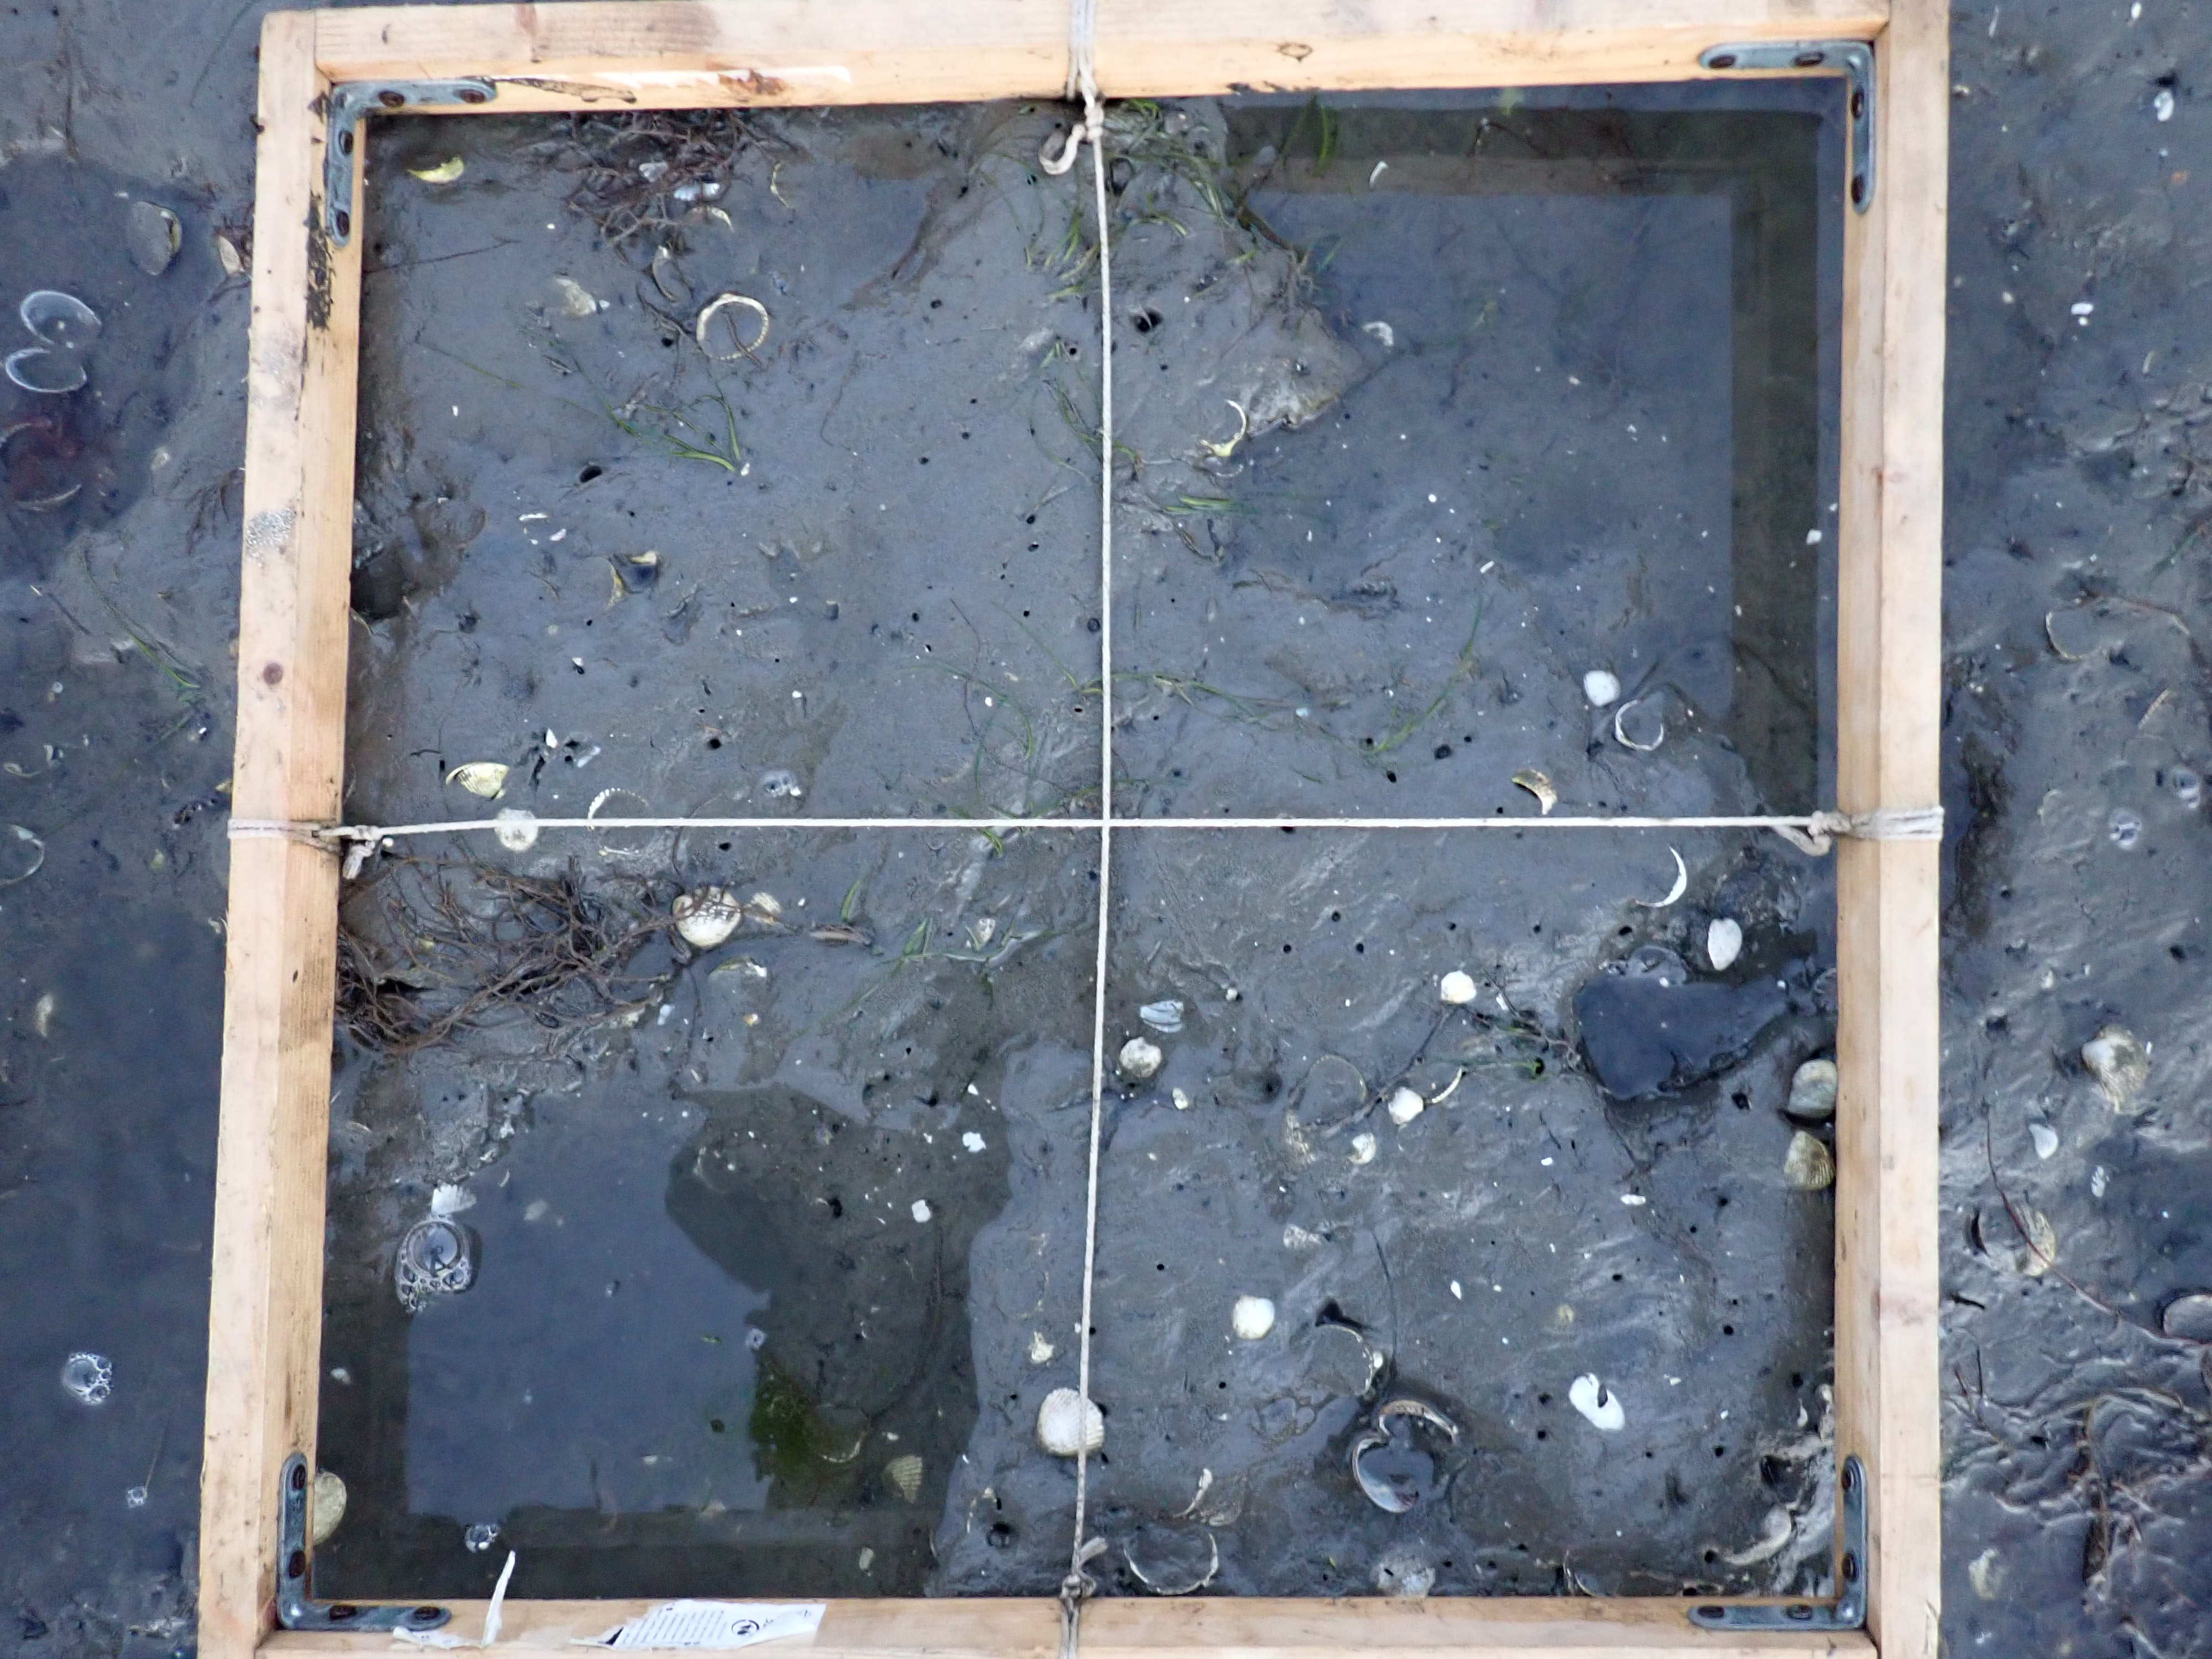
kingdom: Plantae
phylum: Rhodophyta
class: Florideophyceae
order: Gracilariales
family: Gracilariaceae
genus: Gracilaria
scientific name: Gracilaria vermiculophylla
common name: Algae
